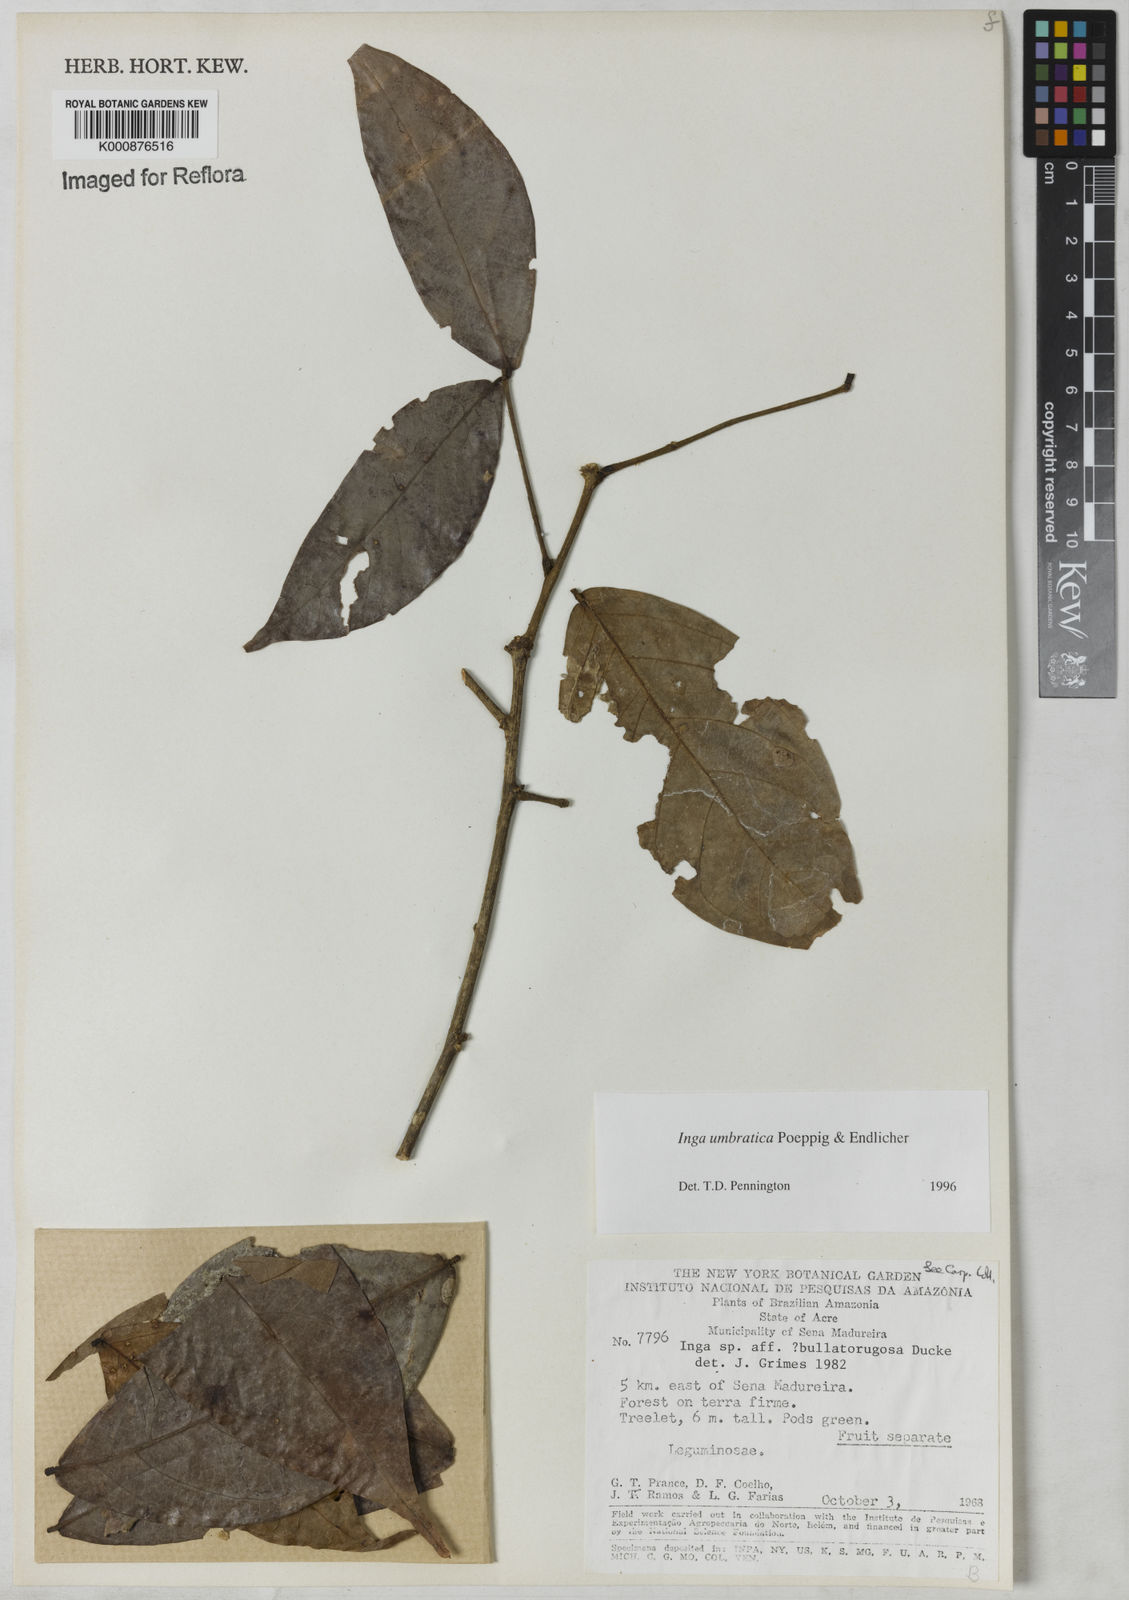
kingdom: Plantae
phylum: Tracheophyta
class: Magnoliopsida
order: Fabales
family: Fabaceae
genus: Inga
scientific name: Inga umbratica
